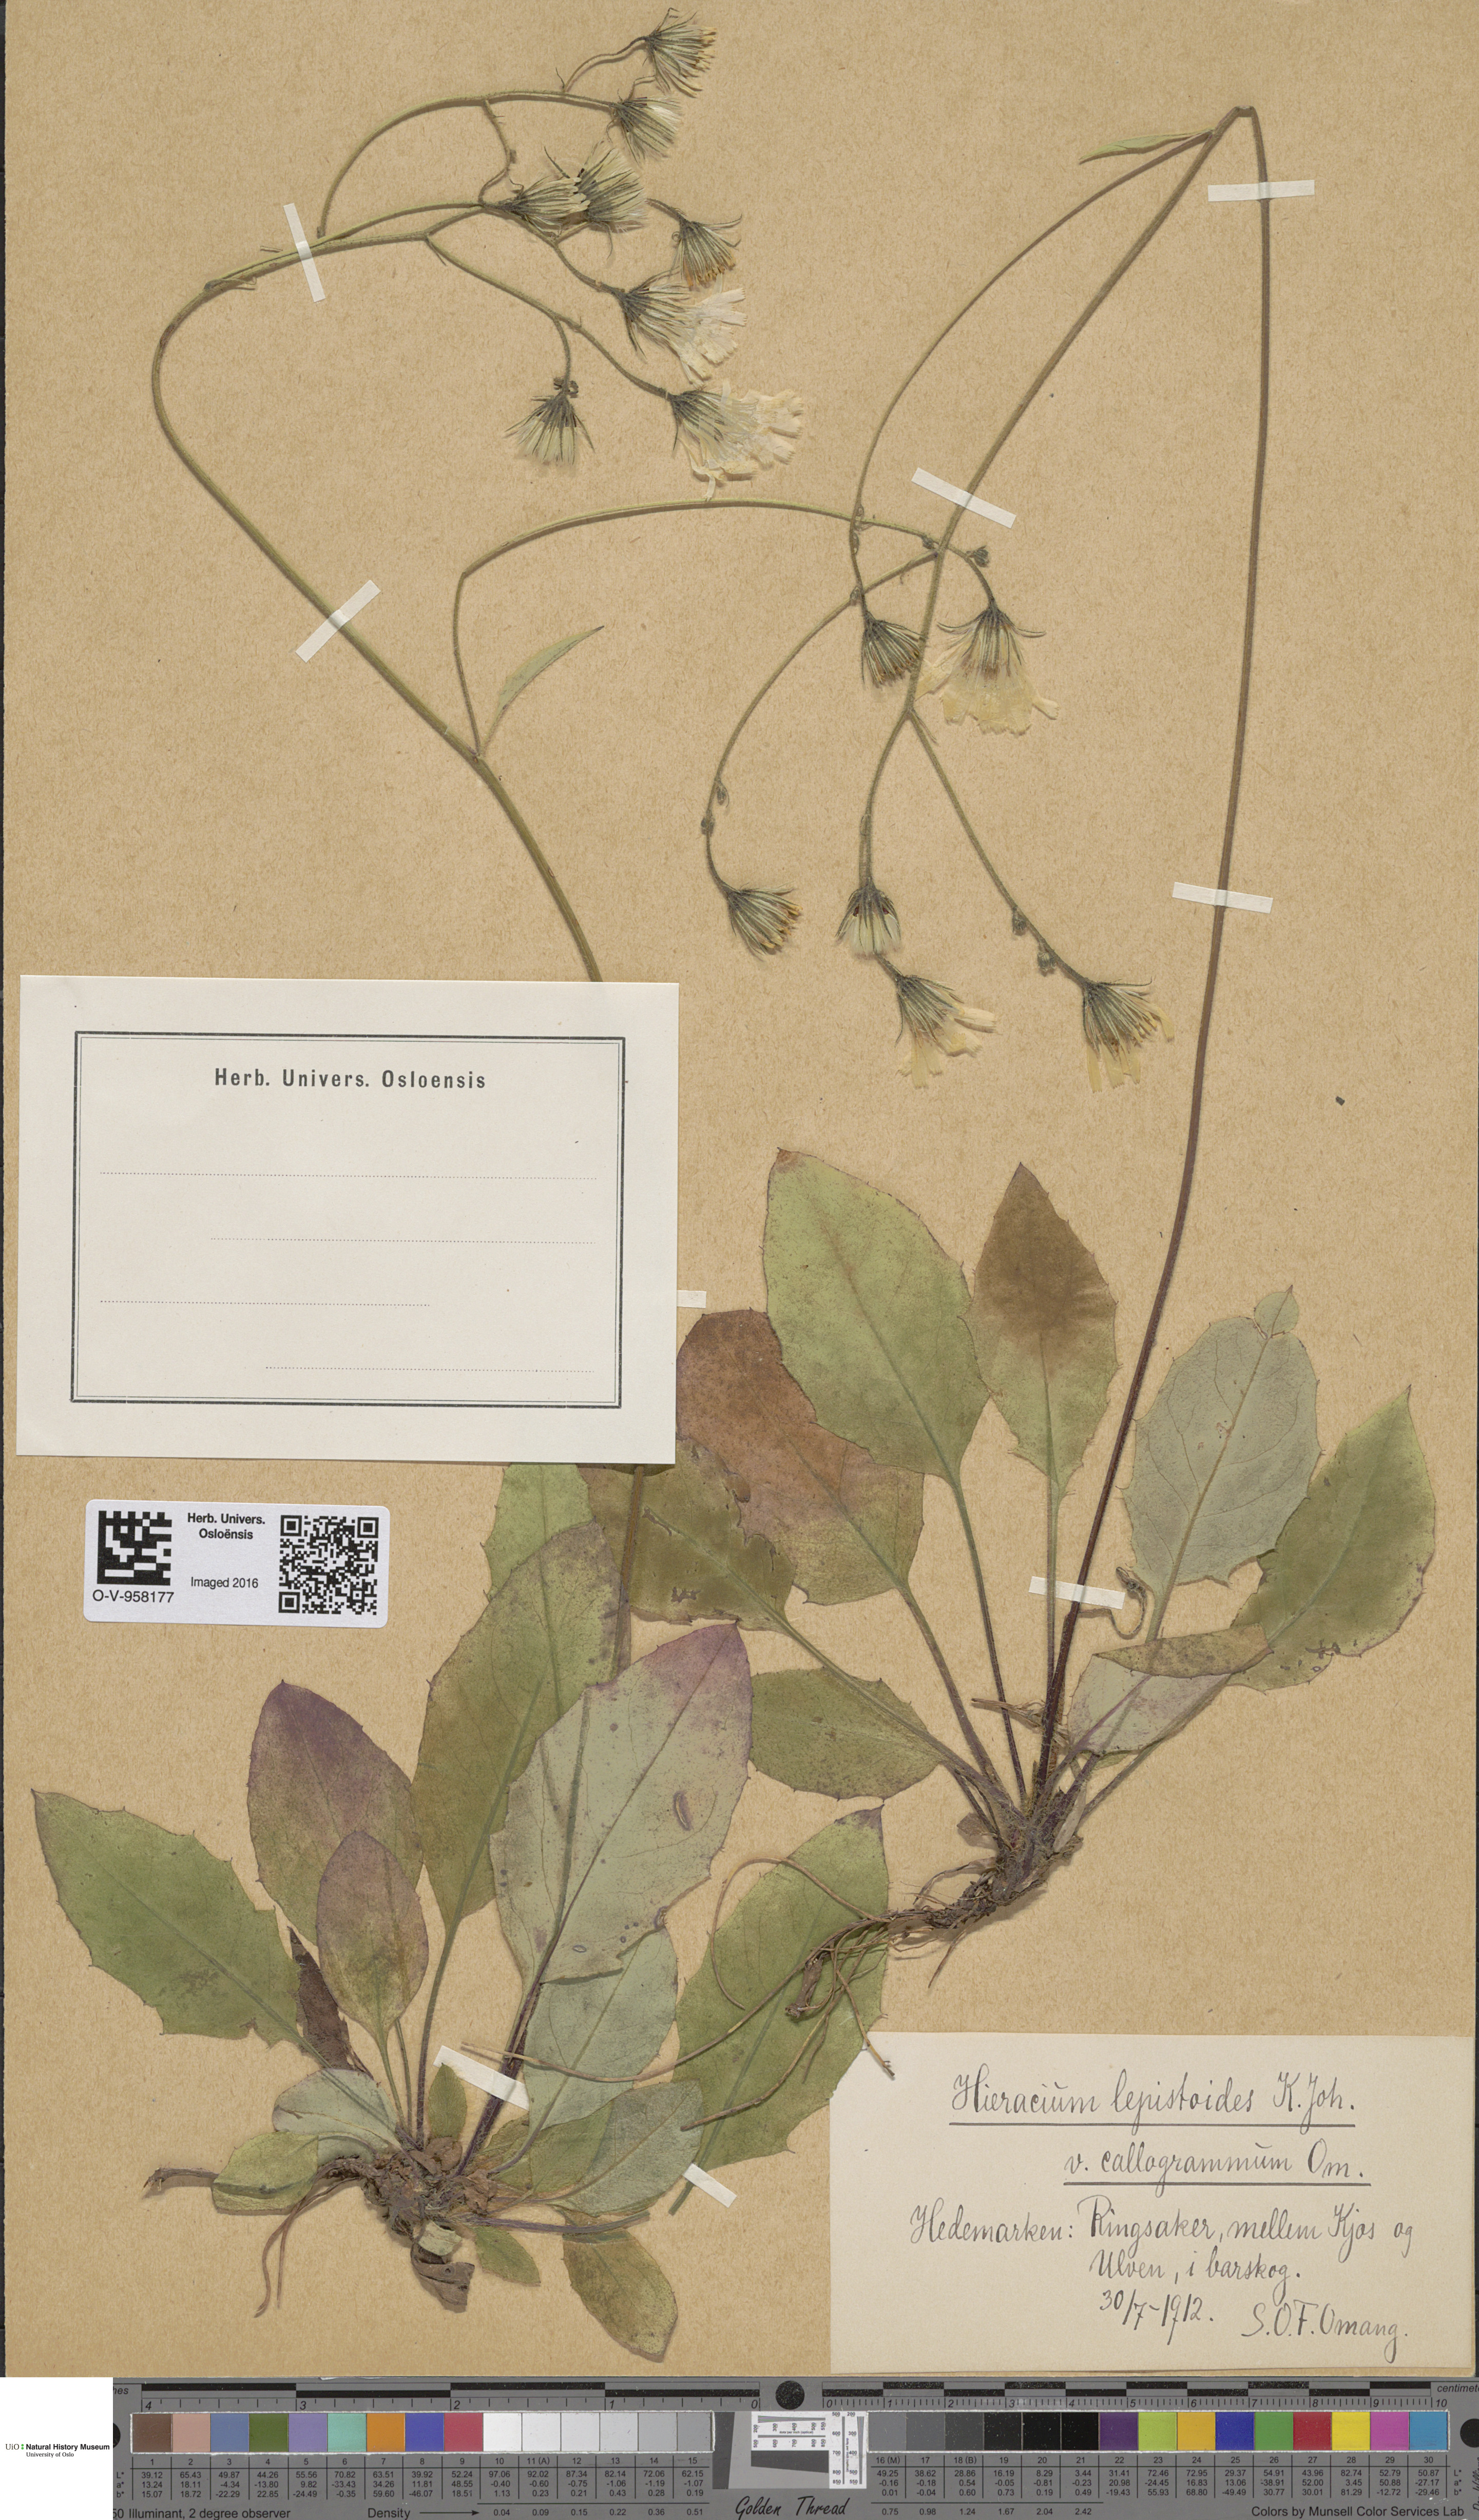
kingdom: Plantae
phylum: Tracheophyta
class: Magnoliopsida
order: Asterales
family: Asteraceae
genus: Hieracium
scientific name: Hieracium lepistoides
